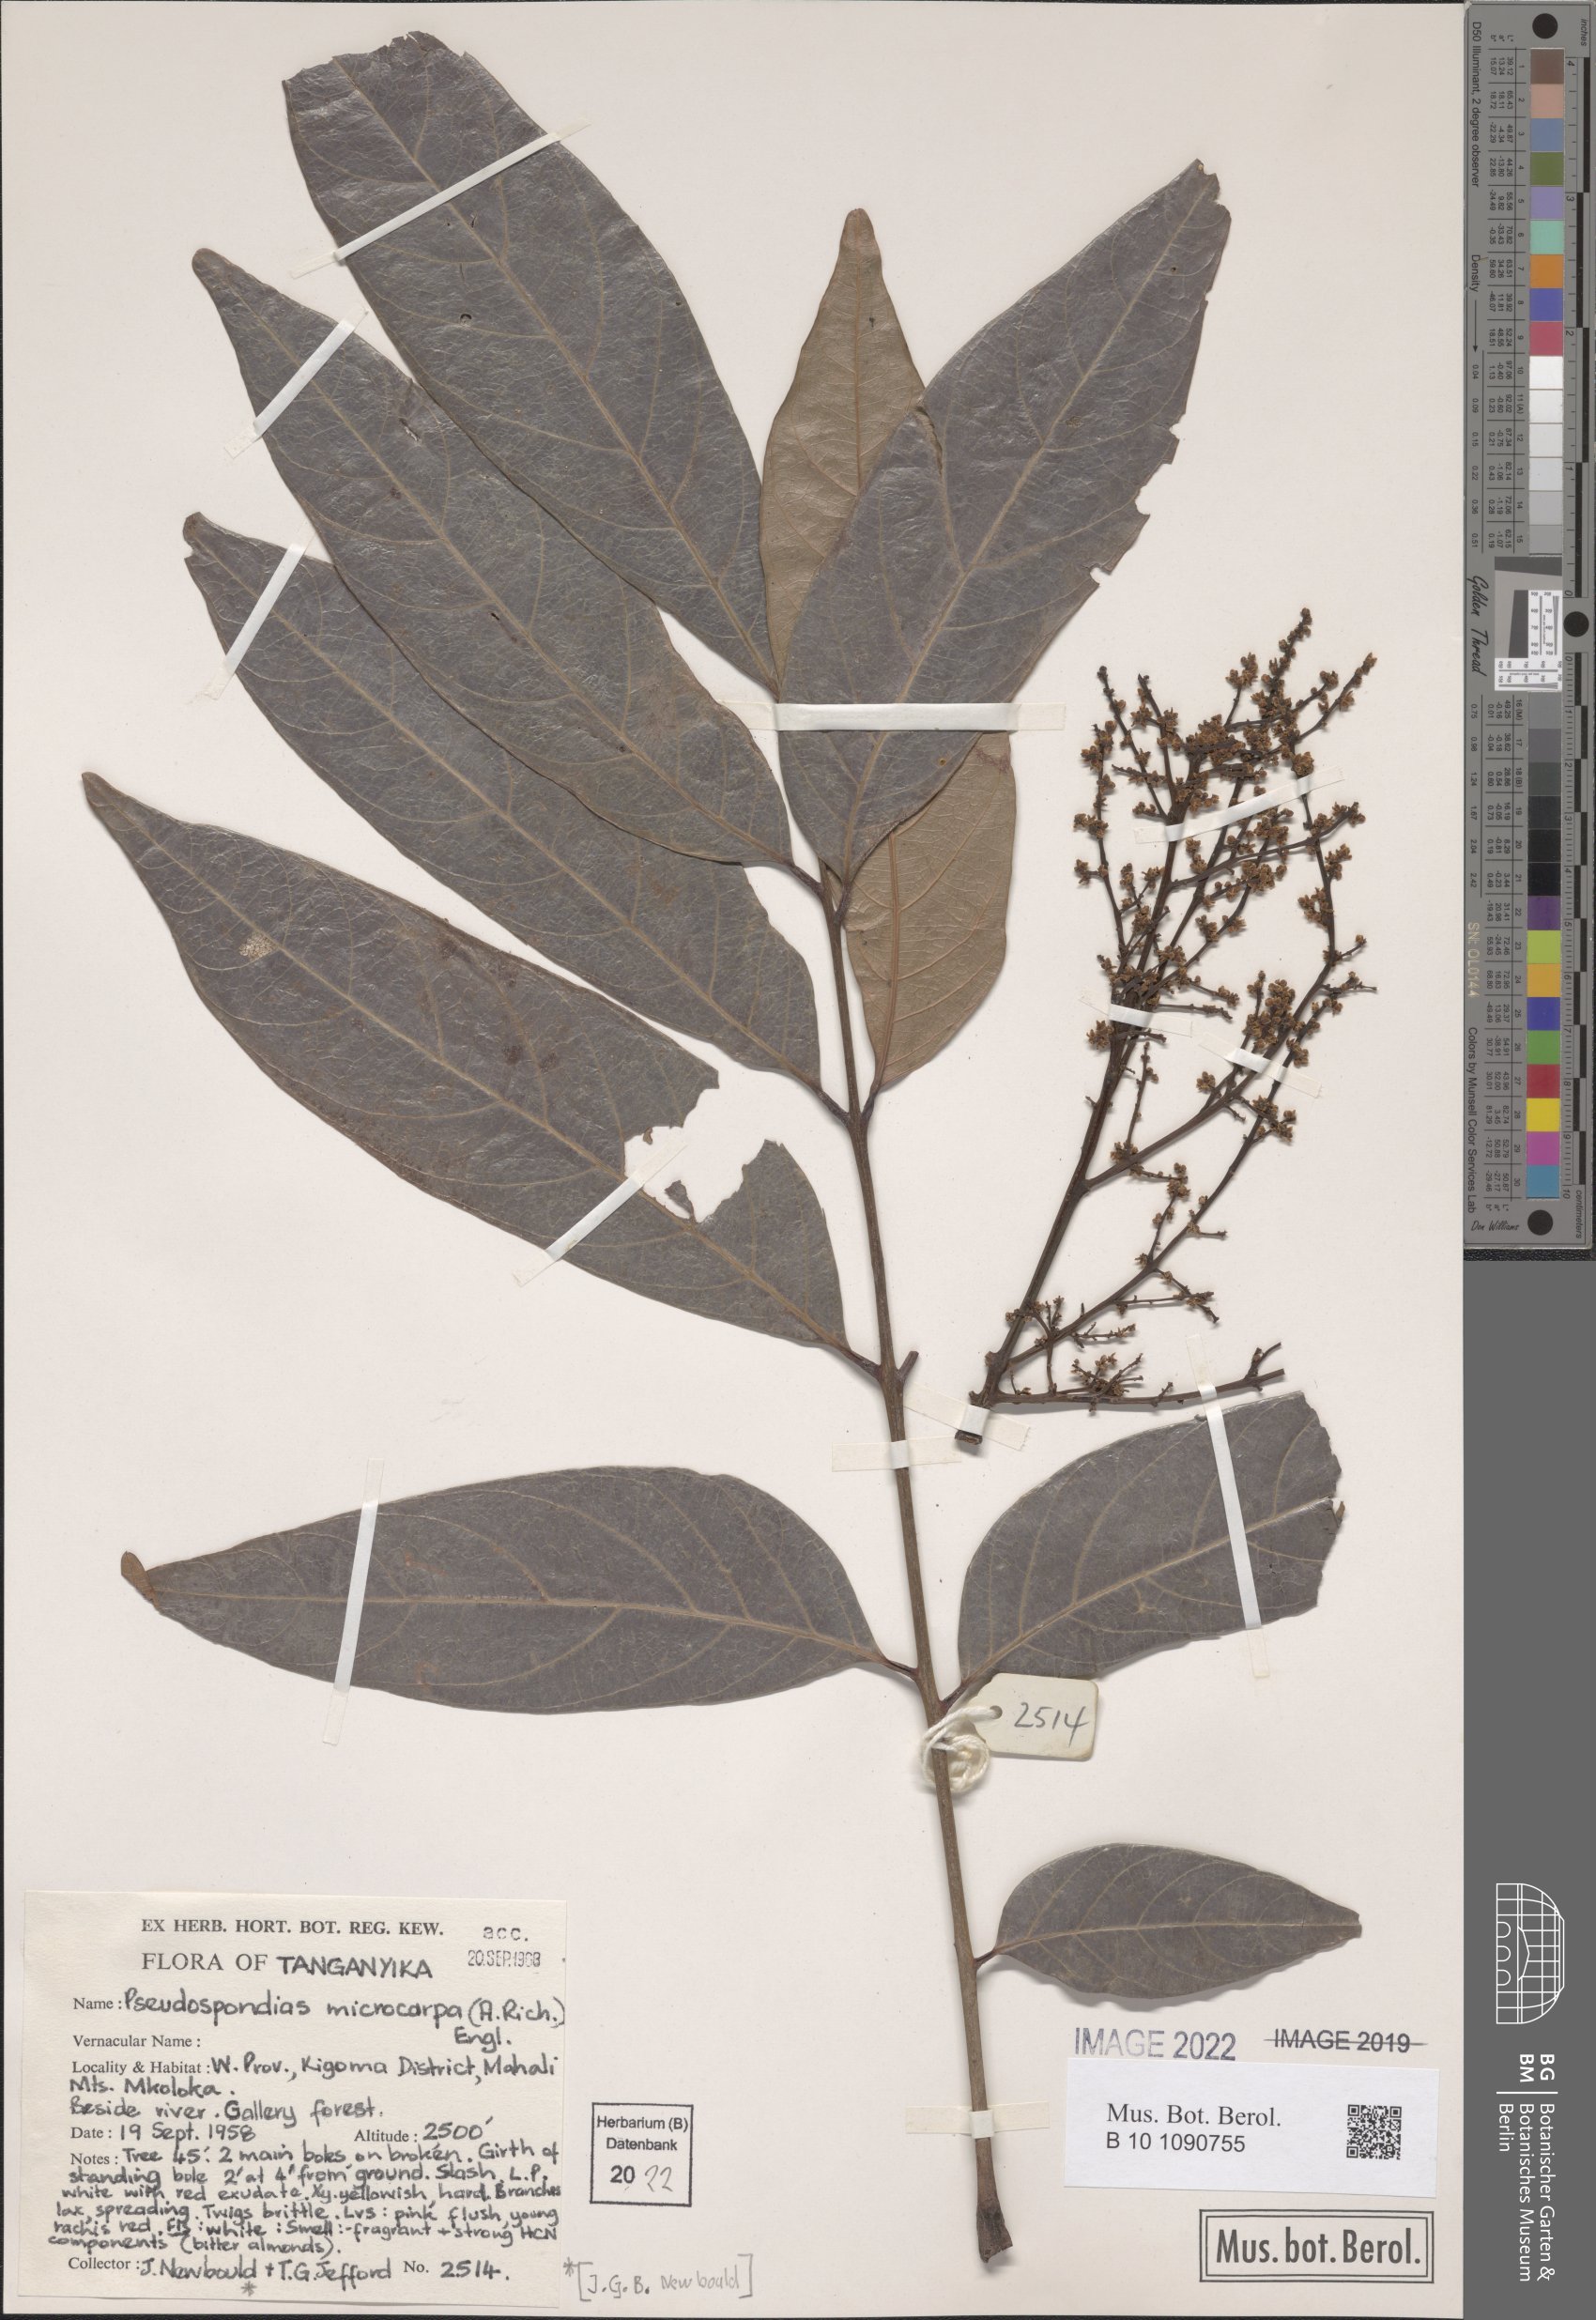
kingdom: Plantae
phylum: Tracheophyta
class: Magnoliopsida
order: Sapindales
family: Anacardiaceae
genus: Pseudospondias
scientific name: Pseudospondias microcarpa
